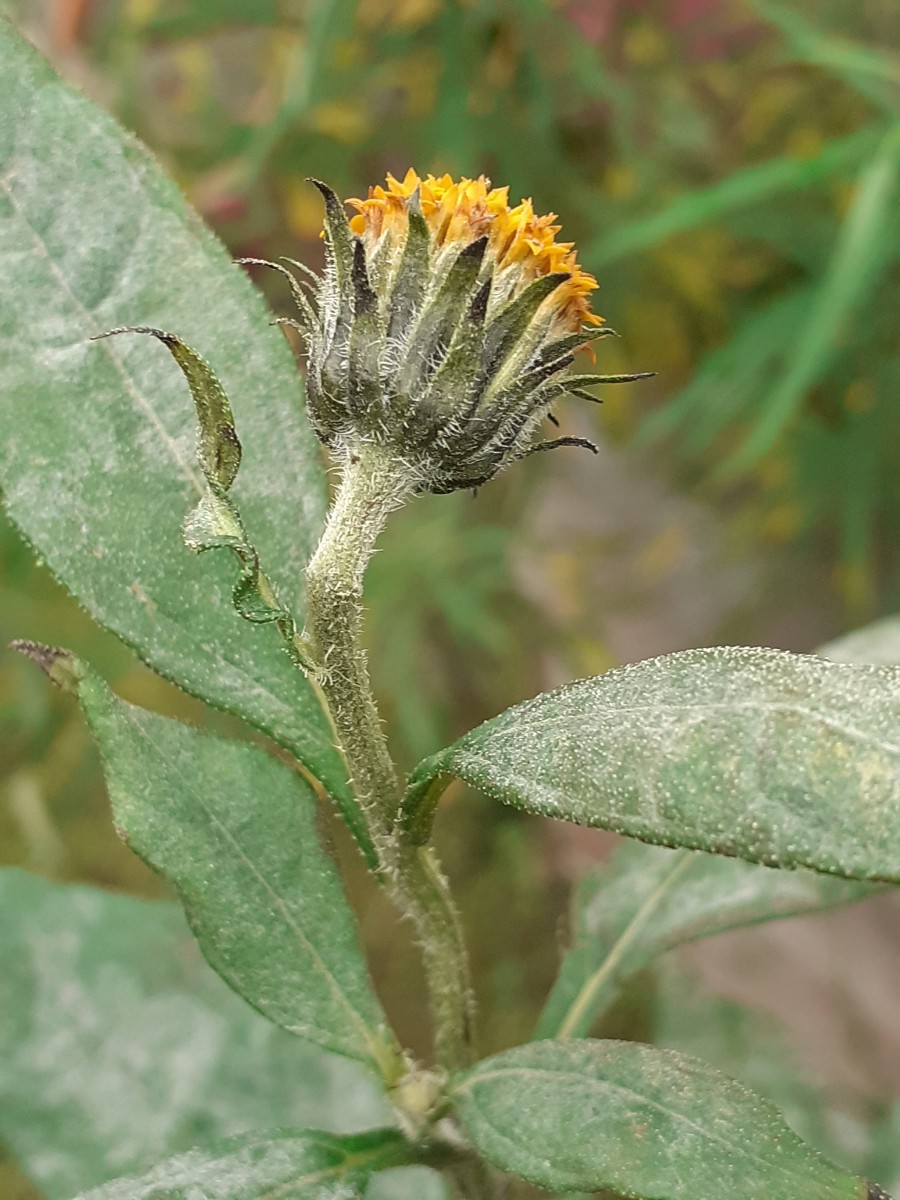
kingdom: Fungi
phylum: Ascomycota
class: Leotiomycetes
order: Helotiales
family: Erysiphaceae
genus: Golovinomyces
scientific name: Golovinomyces ambrosiae
